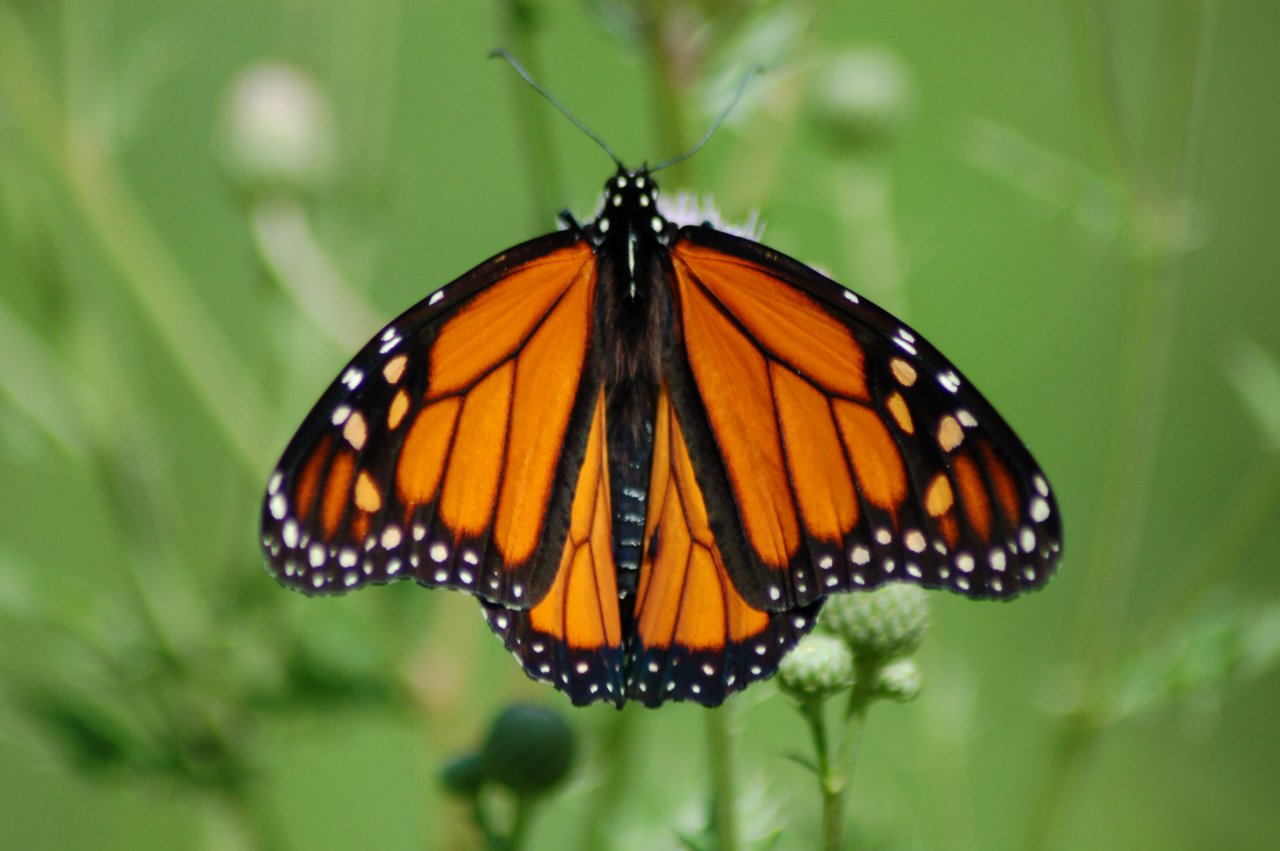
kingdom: Animalia
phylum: Arthropoda
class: Insecta
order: Lepidoptera
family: Nymphalidae
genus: Danaus
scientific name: Danaus plexippus
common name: Monarch
